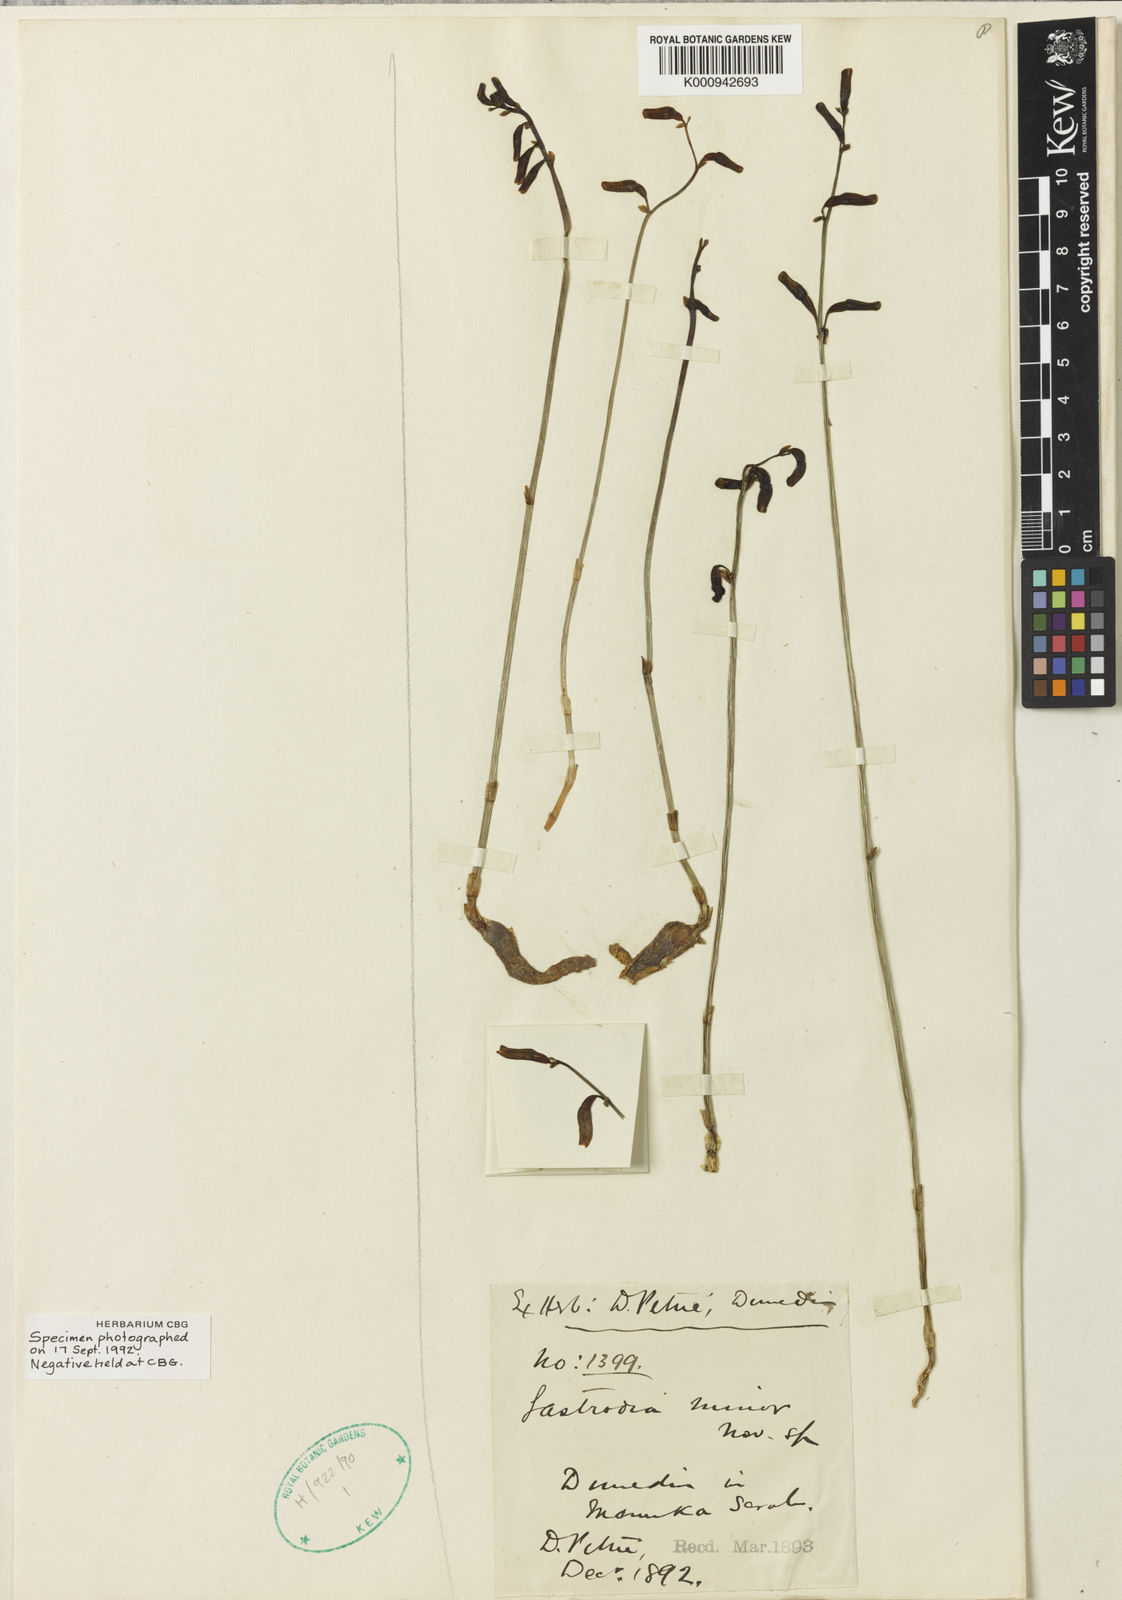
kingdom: Plantae
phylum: Tracheophyta
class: Liliopsida
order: Asparagales
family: Orchidaceae
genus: Gastrodia
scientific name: Gastrodia minor
